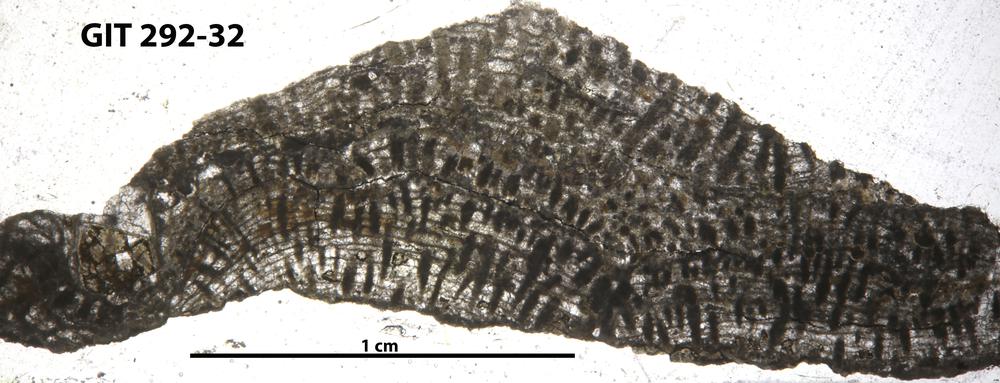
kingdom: Animalia
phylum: Porifera
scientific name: Porifera
